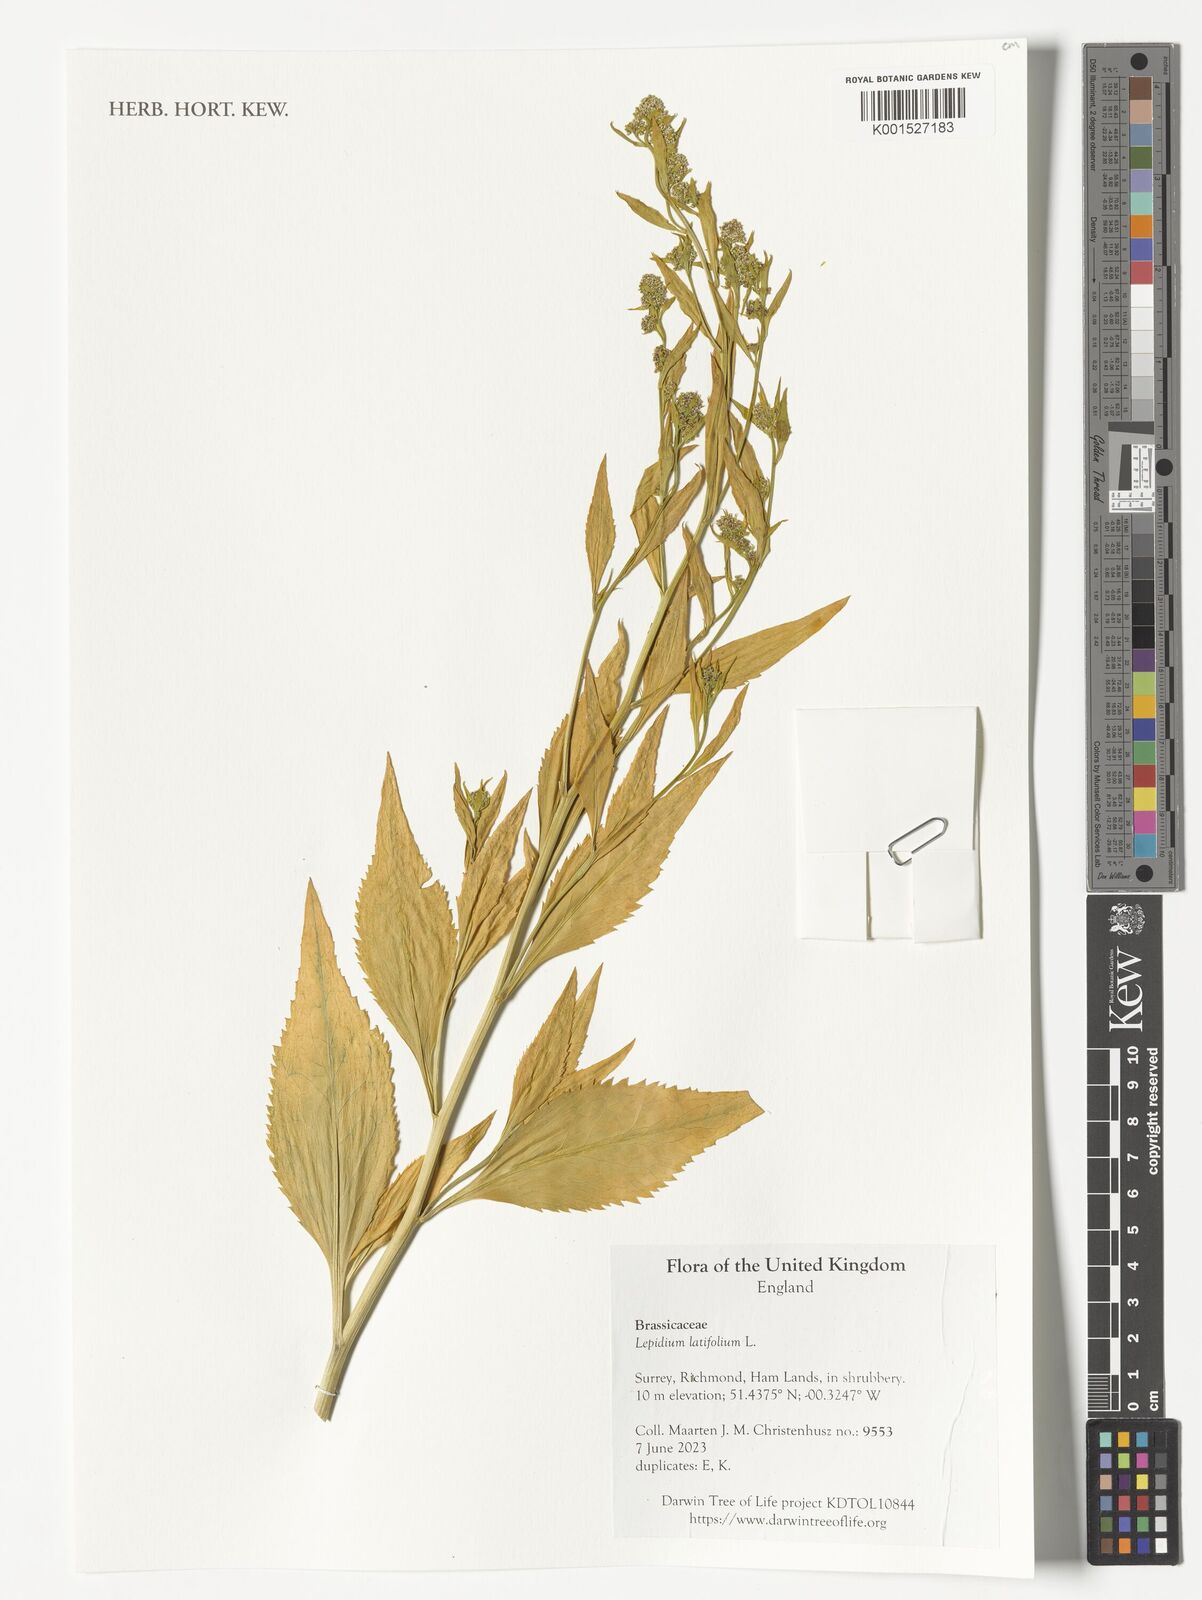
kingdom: Plantae
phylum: Tracheophyta
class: Magnoliopsida
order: Brassicales
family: Brassicaceae
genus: Lepidium
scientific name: Lepidium latifolium
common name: Dittander
